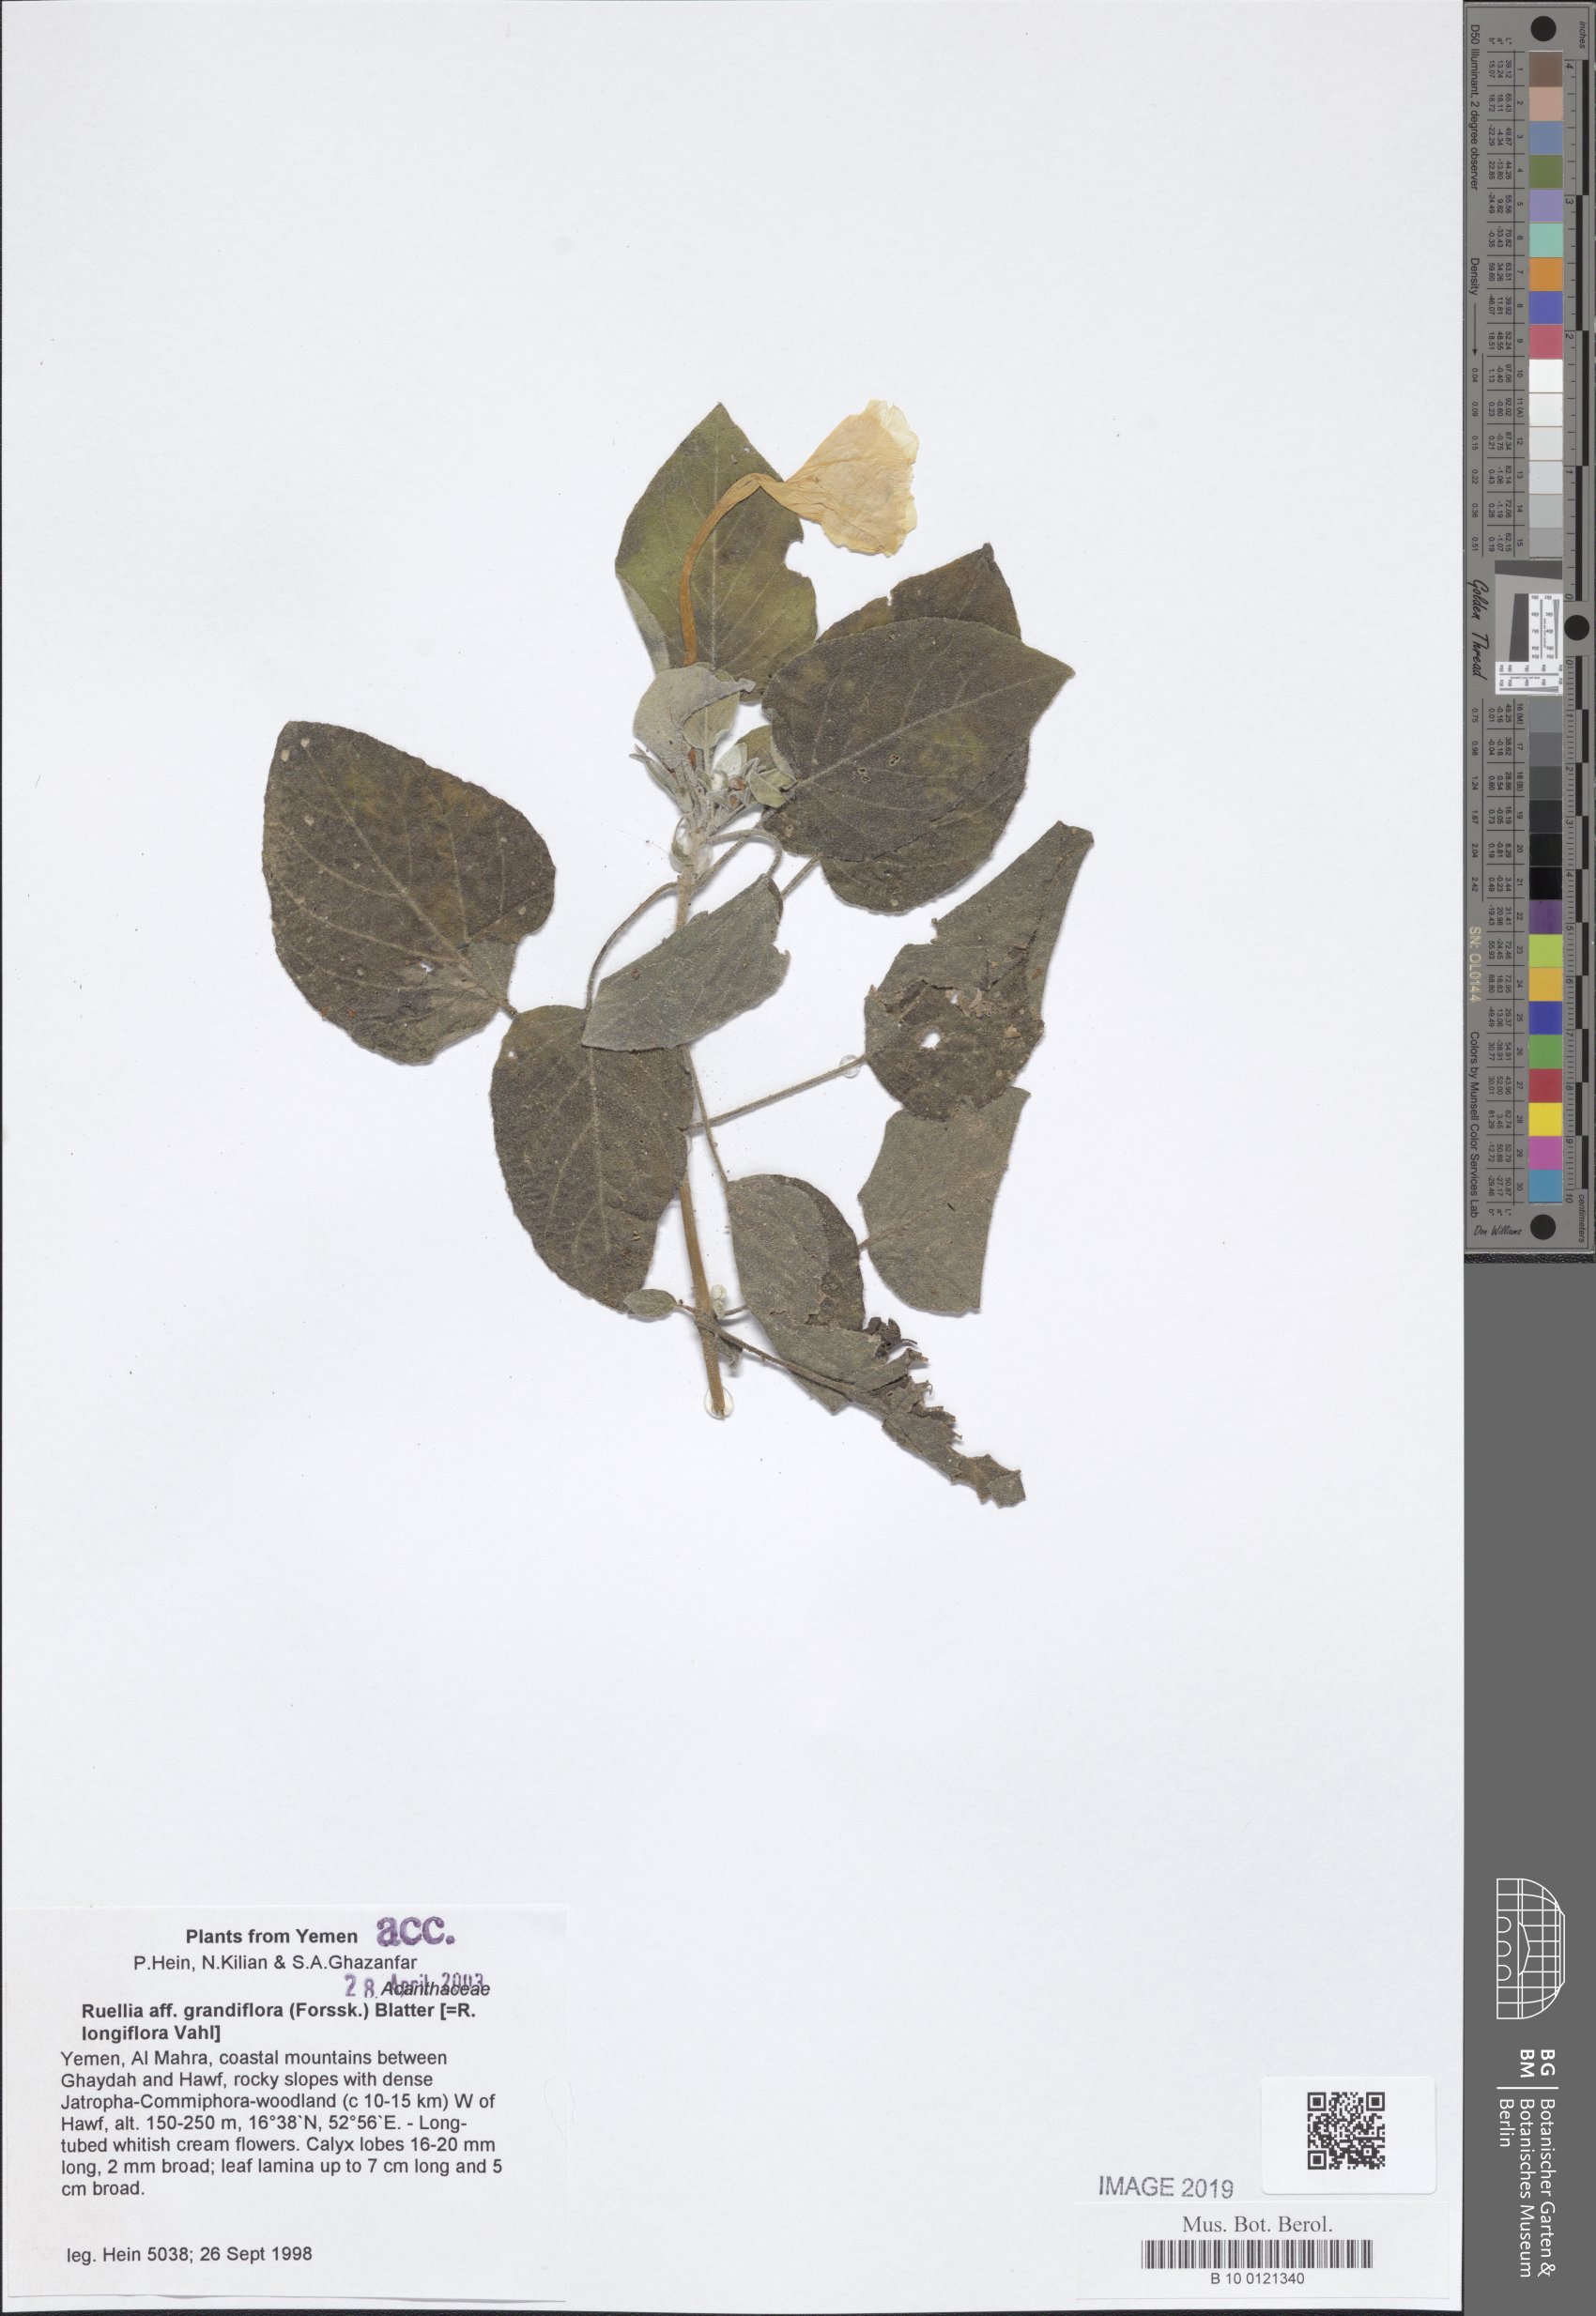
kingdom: Plantae
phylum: Tracheophyta
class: Magnoliopsida
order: Lamiales
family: Acanthaceae
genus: Ruellia
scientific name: Ruellia grandiflora
